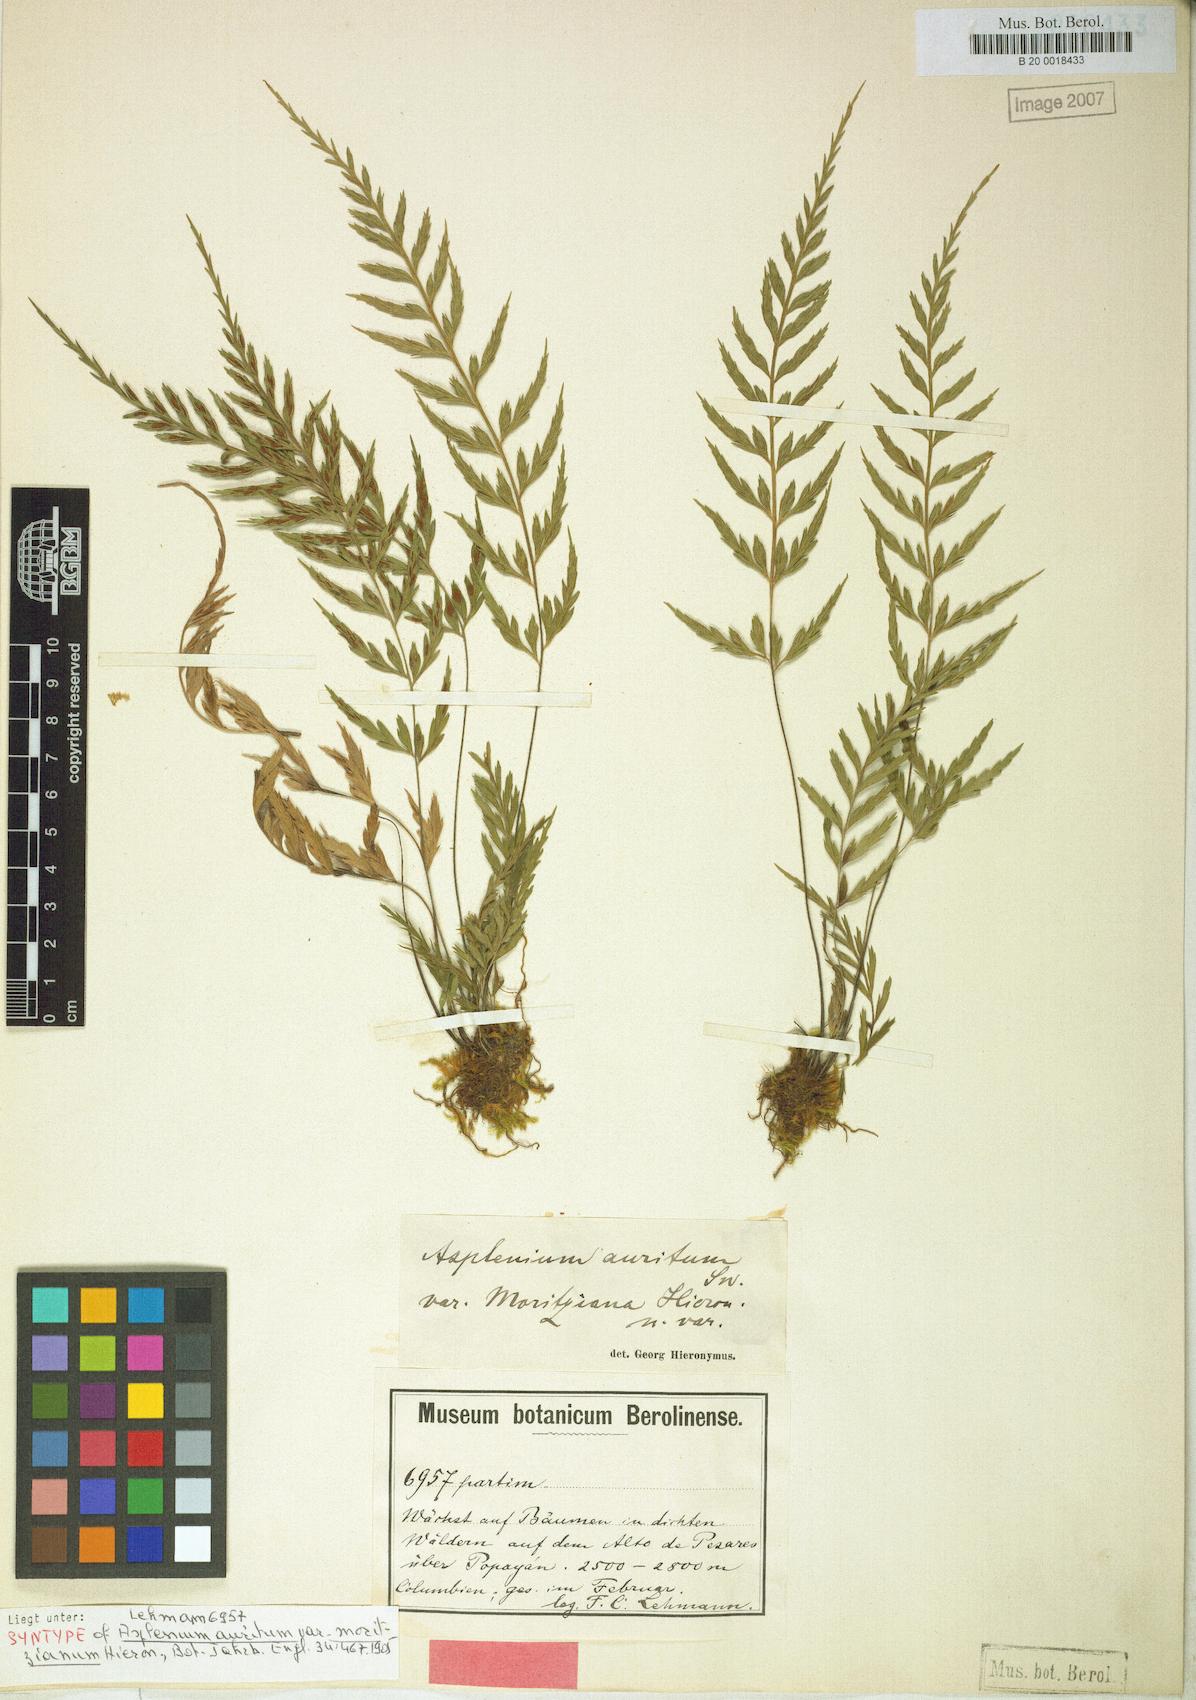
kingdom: Plantae
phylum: Tracheophyta
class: Polypodiopsida
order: Polypodiales
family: Aspleniaceae
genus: Asplenium
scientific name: Asplenium auritum
